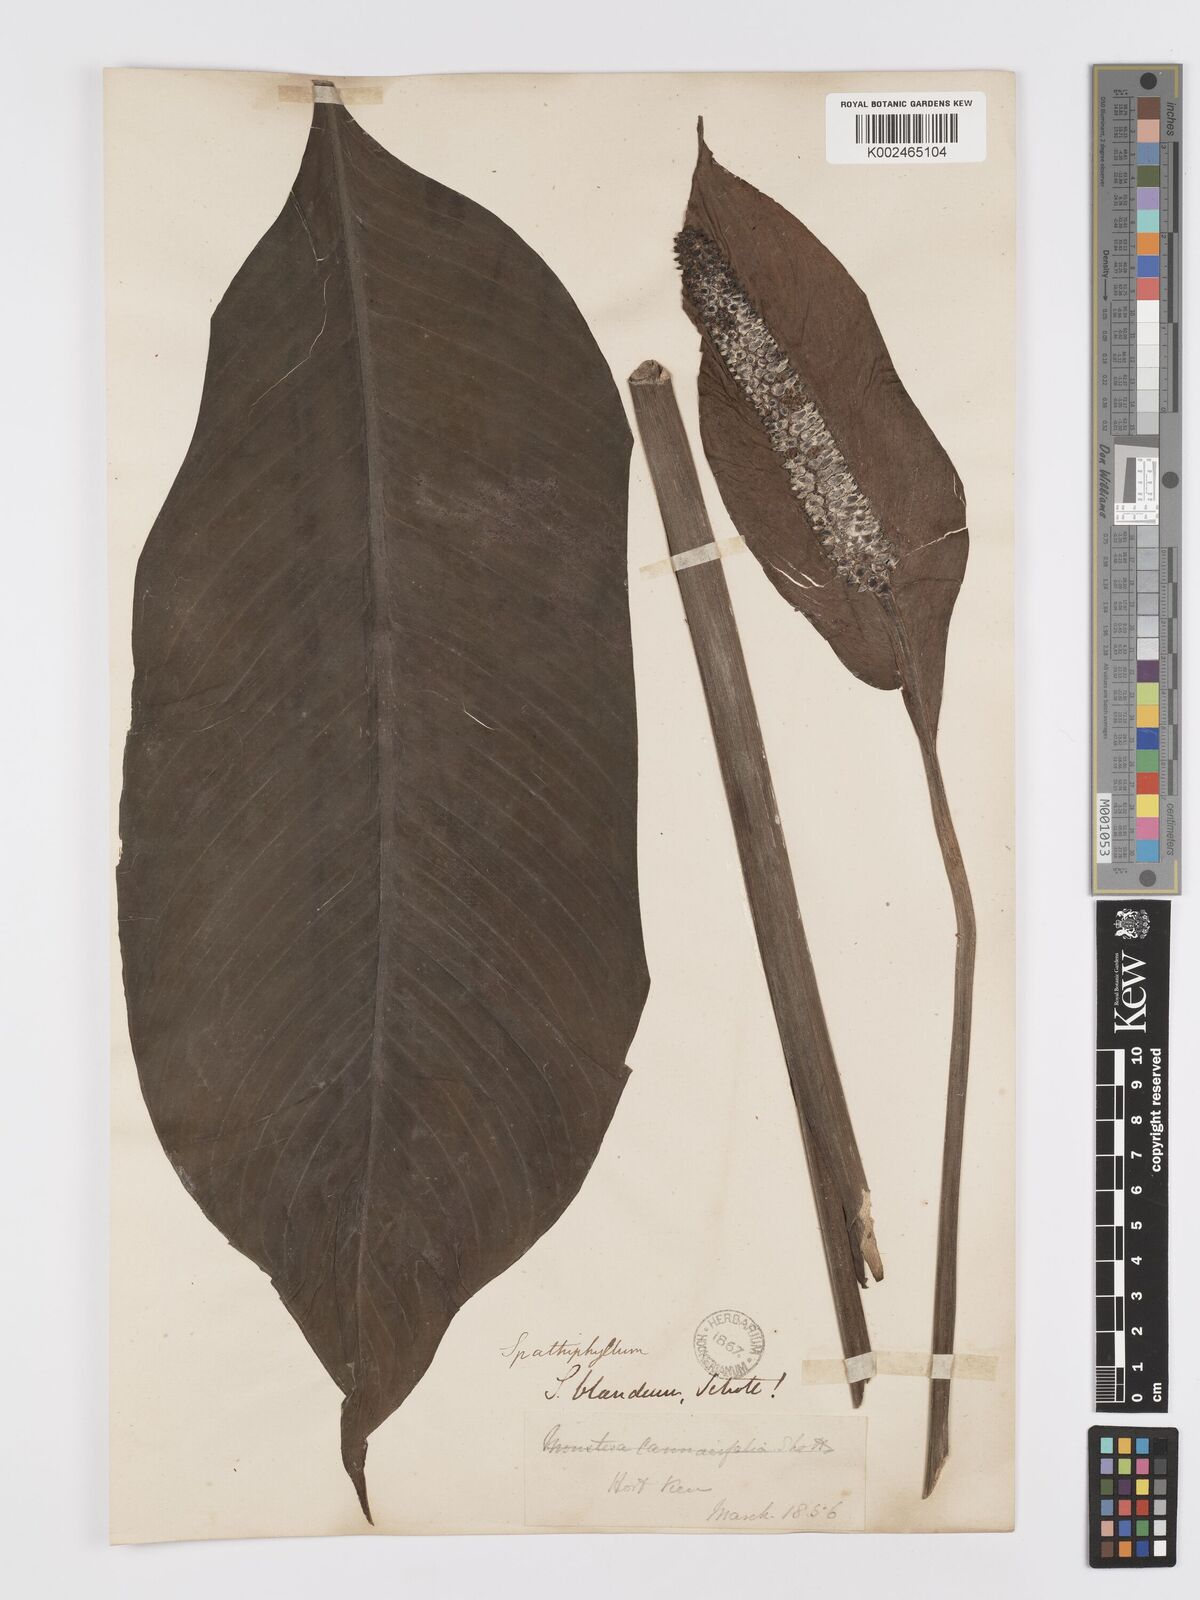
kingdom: Plantae
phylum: Tracheophyta
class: Liliopsida
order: Alismatales
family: Araceae
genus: Spathiphyllum
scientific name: Spathiphyllum blandum
